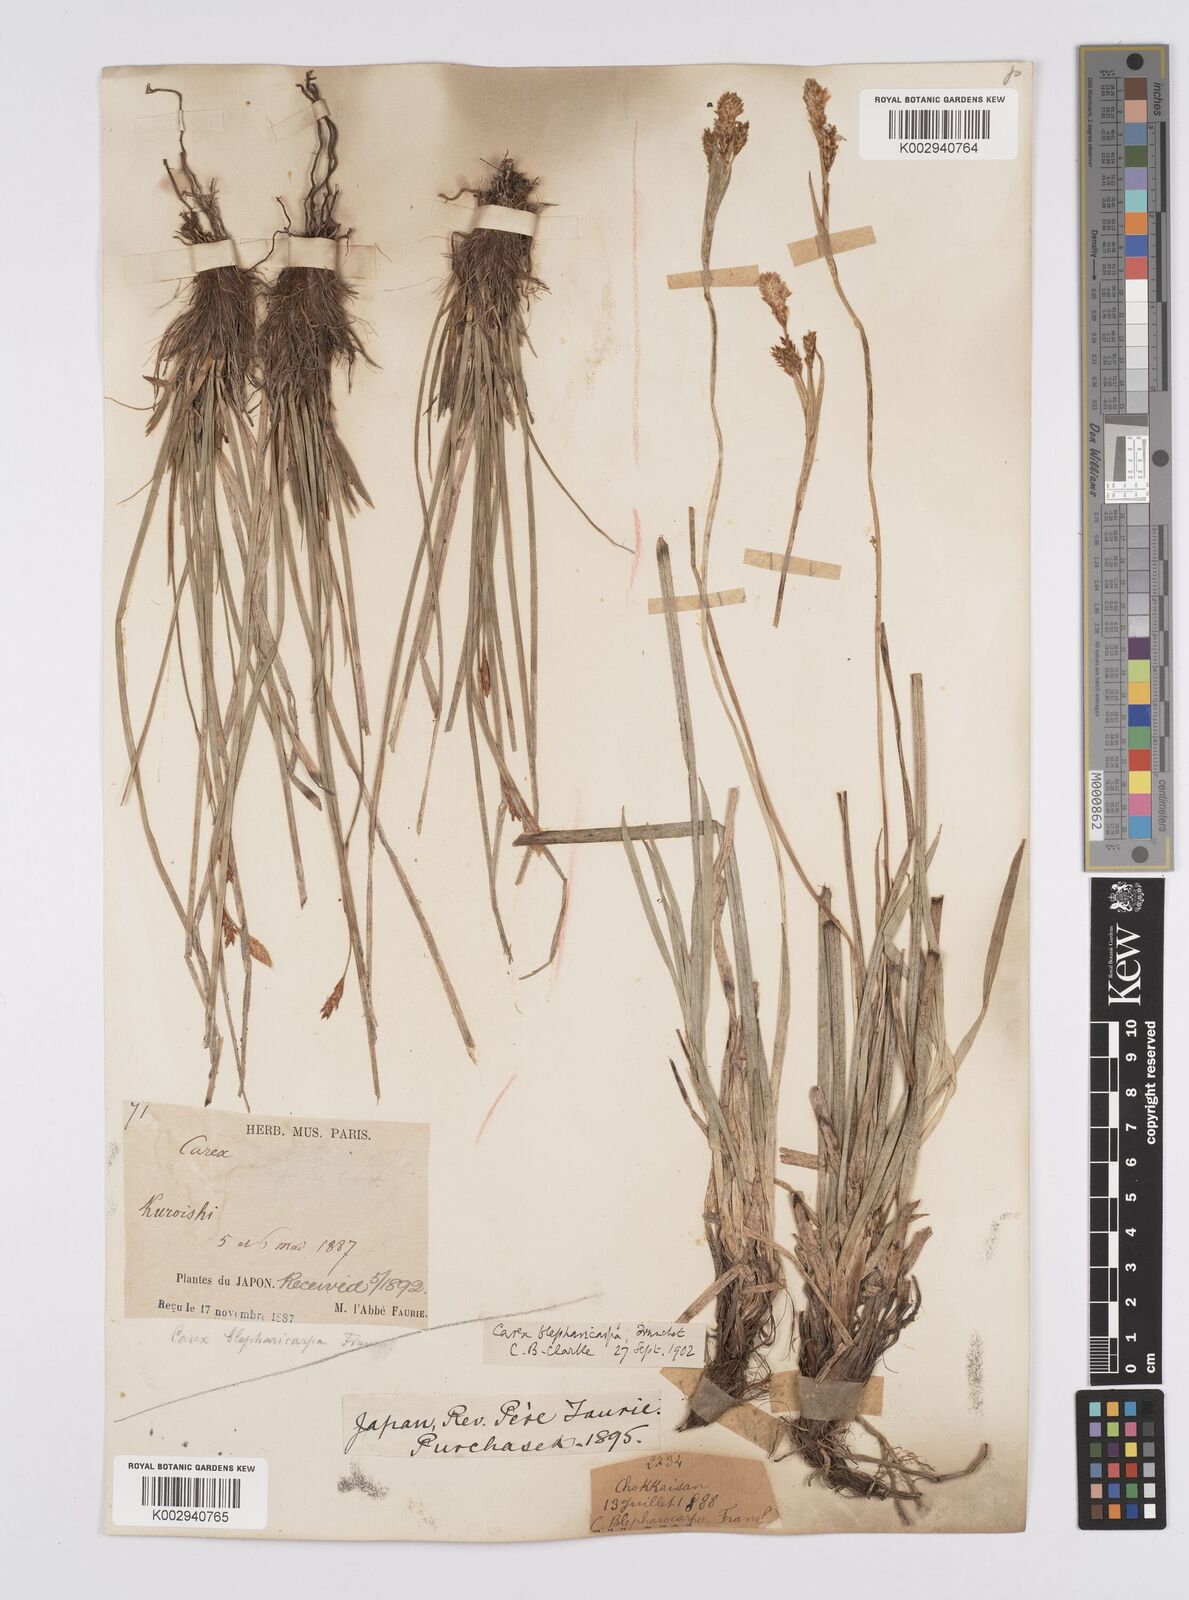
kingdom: Plantae
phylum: Tracheophyta
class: Liliopsida
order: Poales
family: Cyperaceae
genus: Carex
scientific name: Carex blepharicarpa
